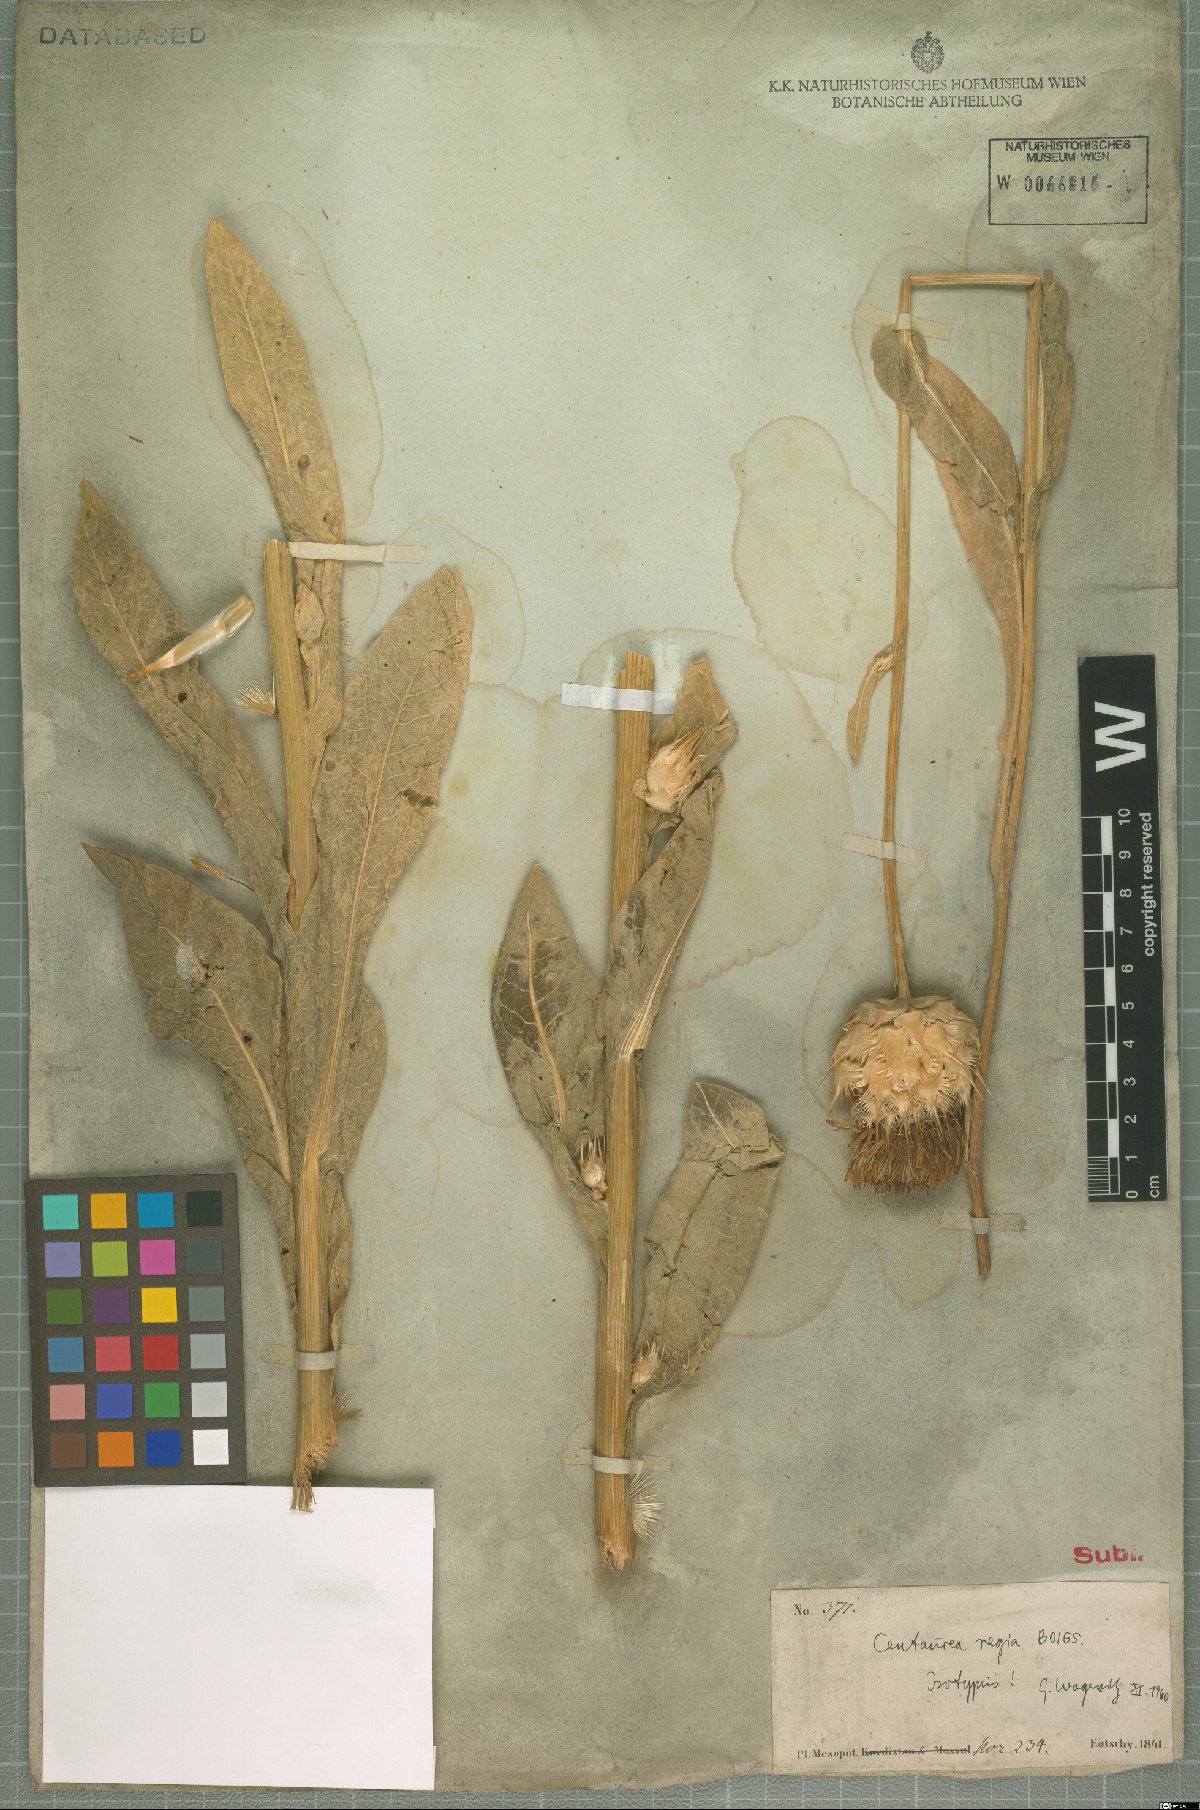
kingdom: Plantae
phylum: Tracheophyta
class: Magnoliopsida
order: Asterales
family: Asteraceae
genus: Centaurea
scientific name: Centaurea regia
